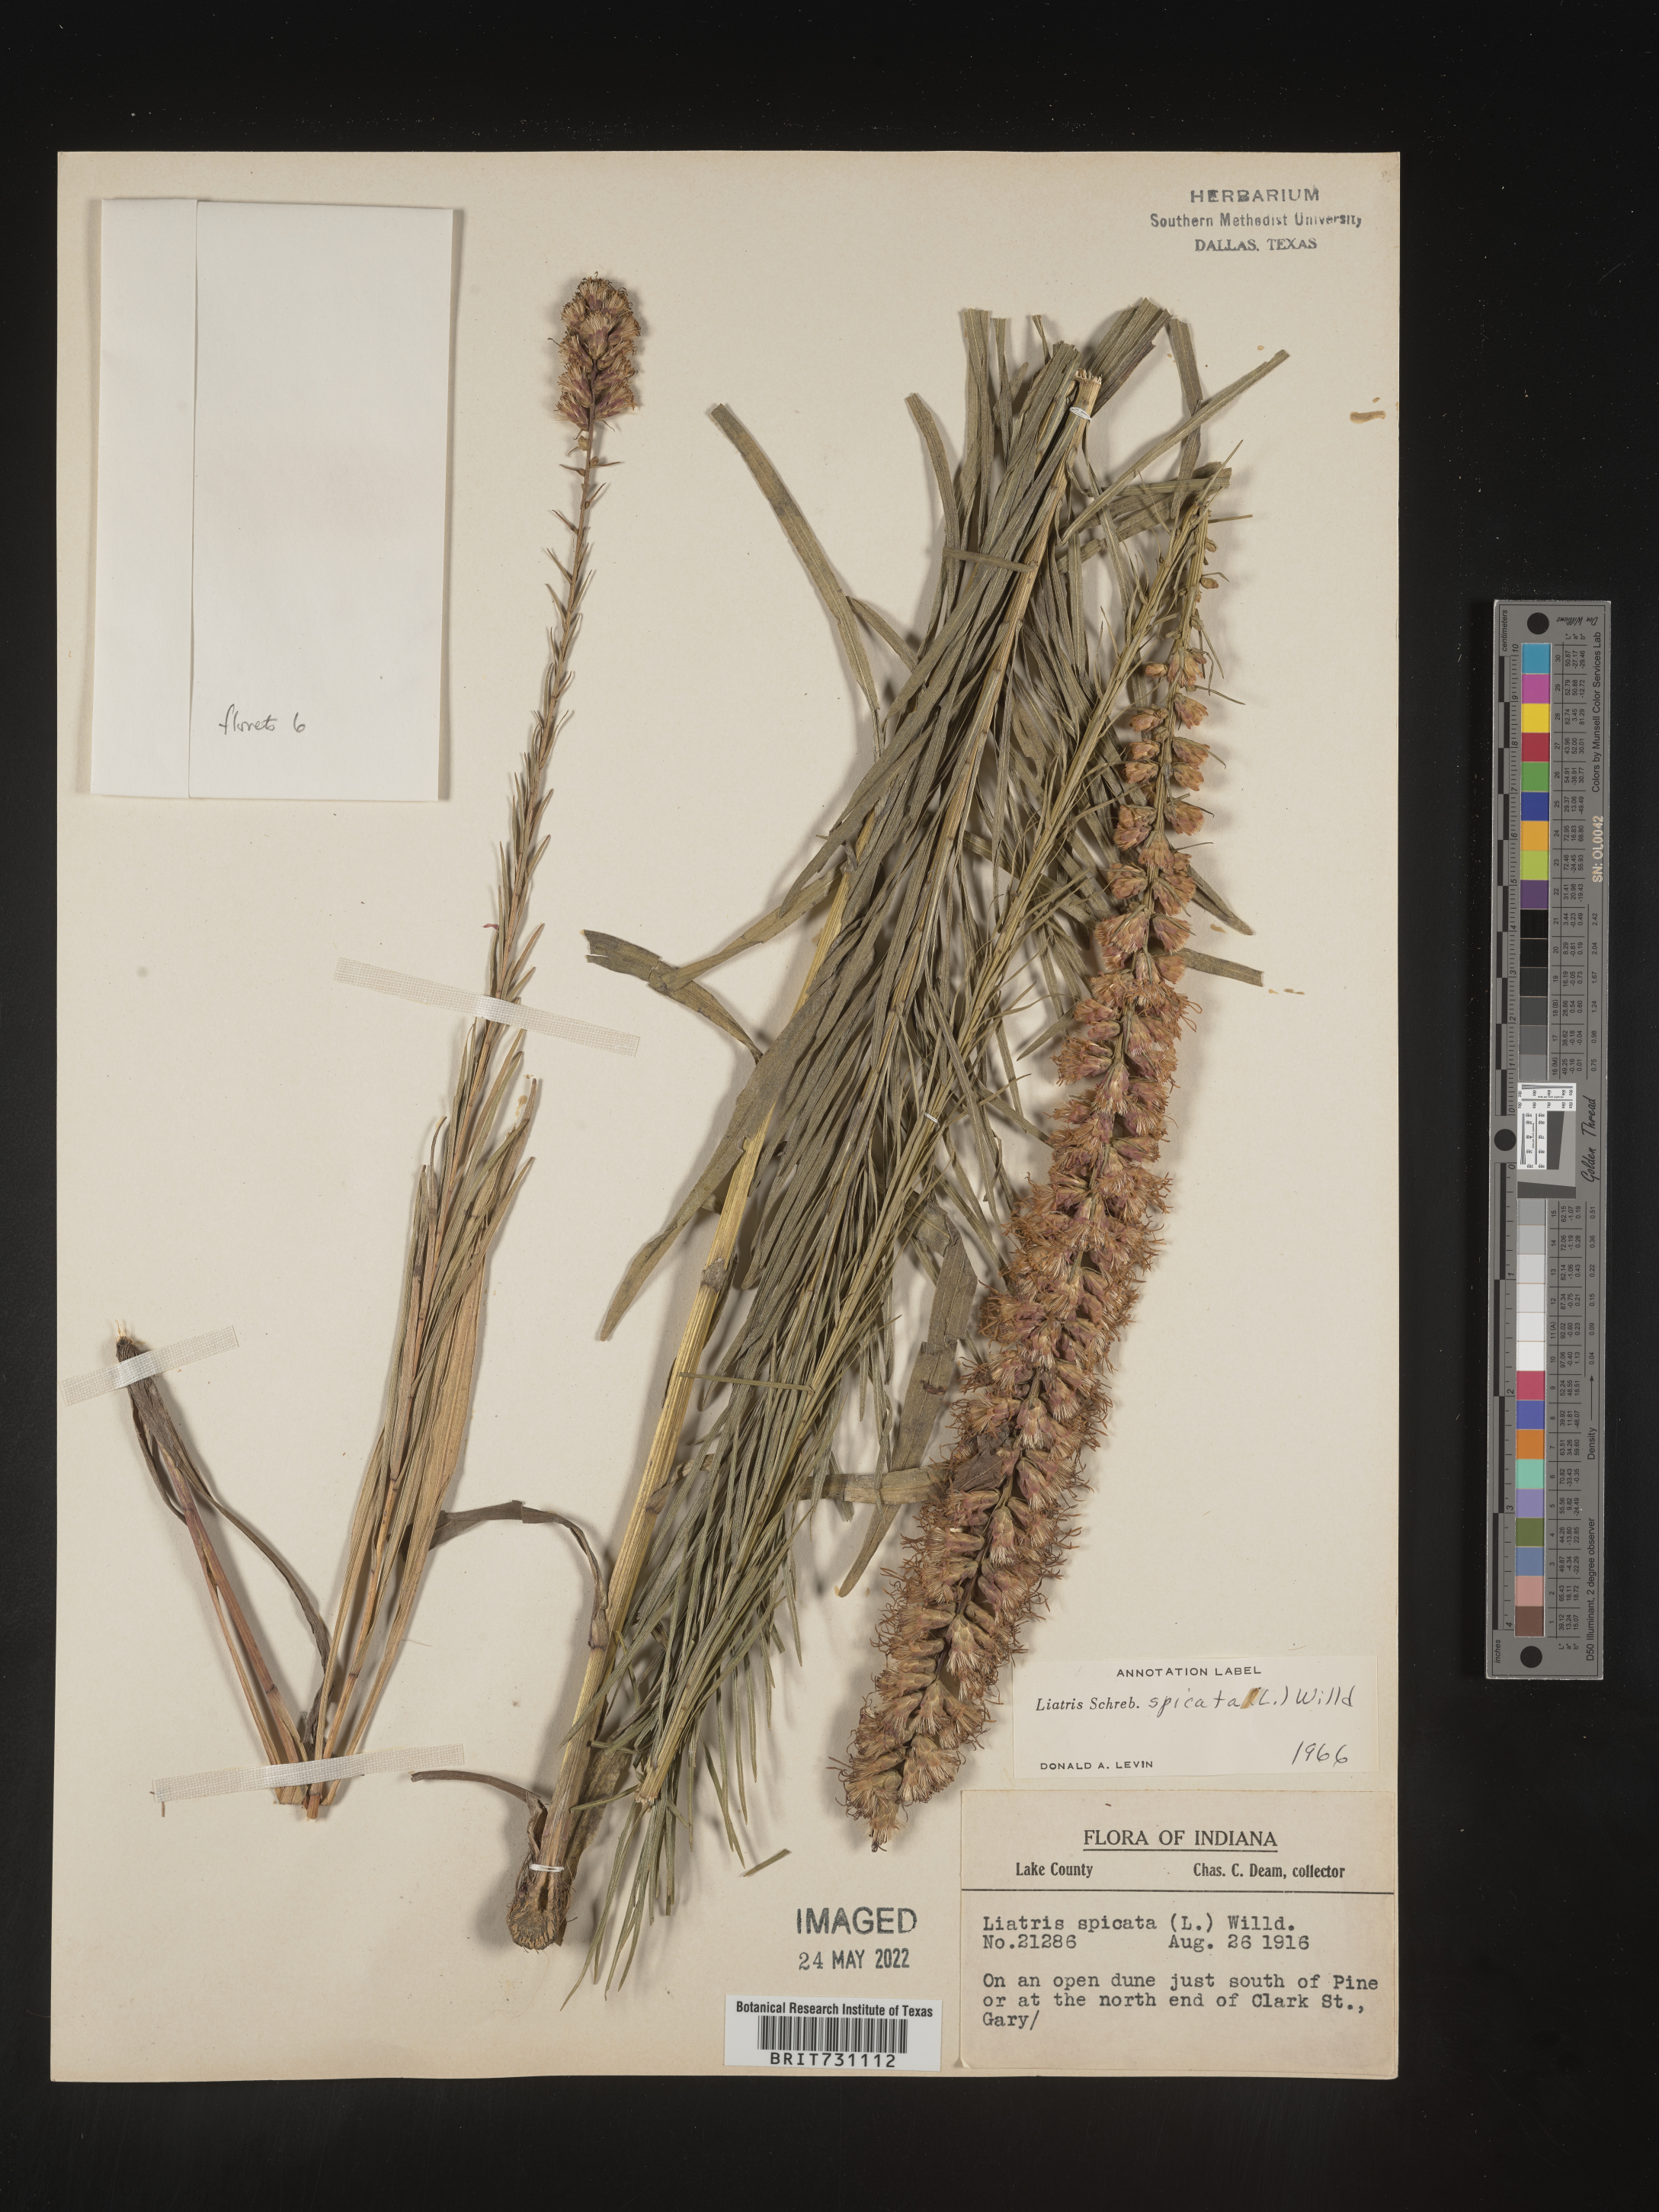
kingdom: Plantae
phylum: Tracheophyta
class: Magnoliopsida
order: Asterales
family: Asteraceae
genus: Liatris
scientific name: Liatris spicata
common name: Florist gayfeather
